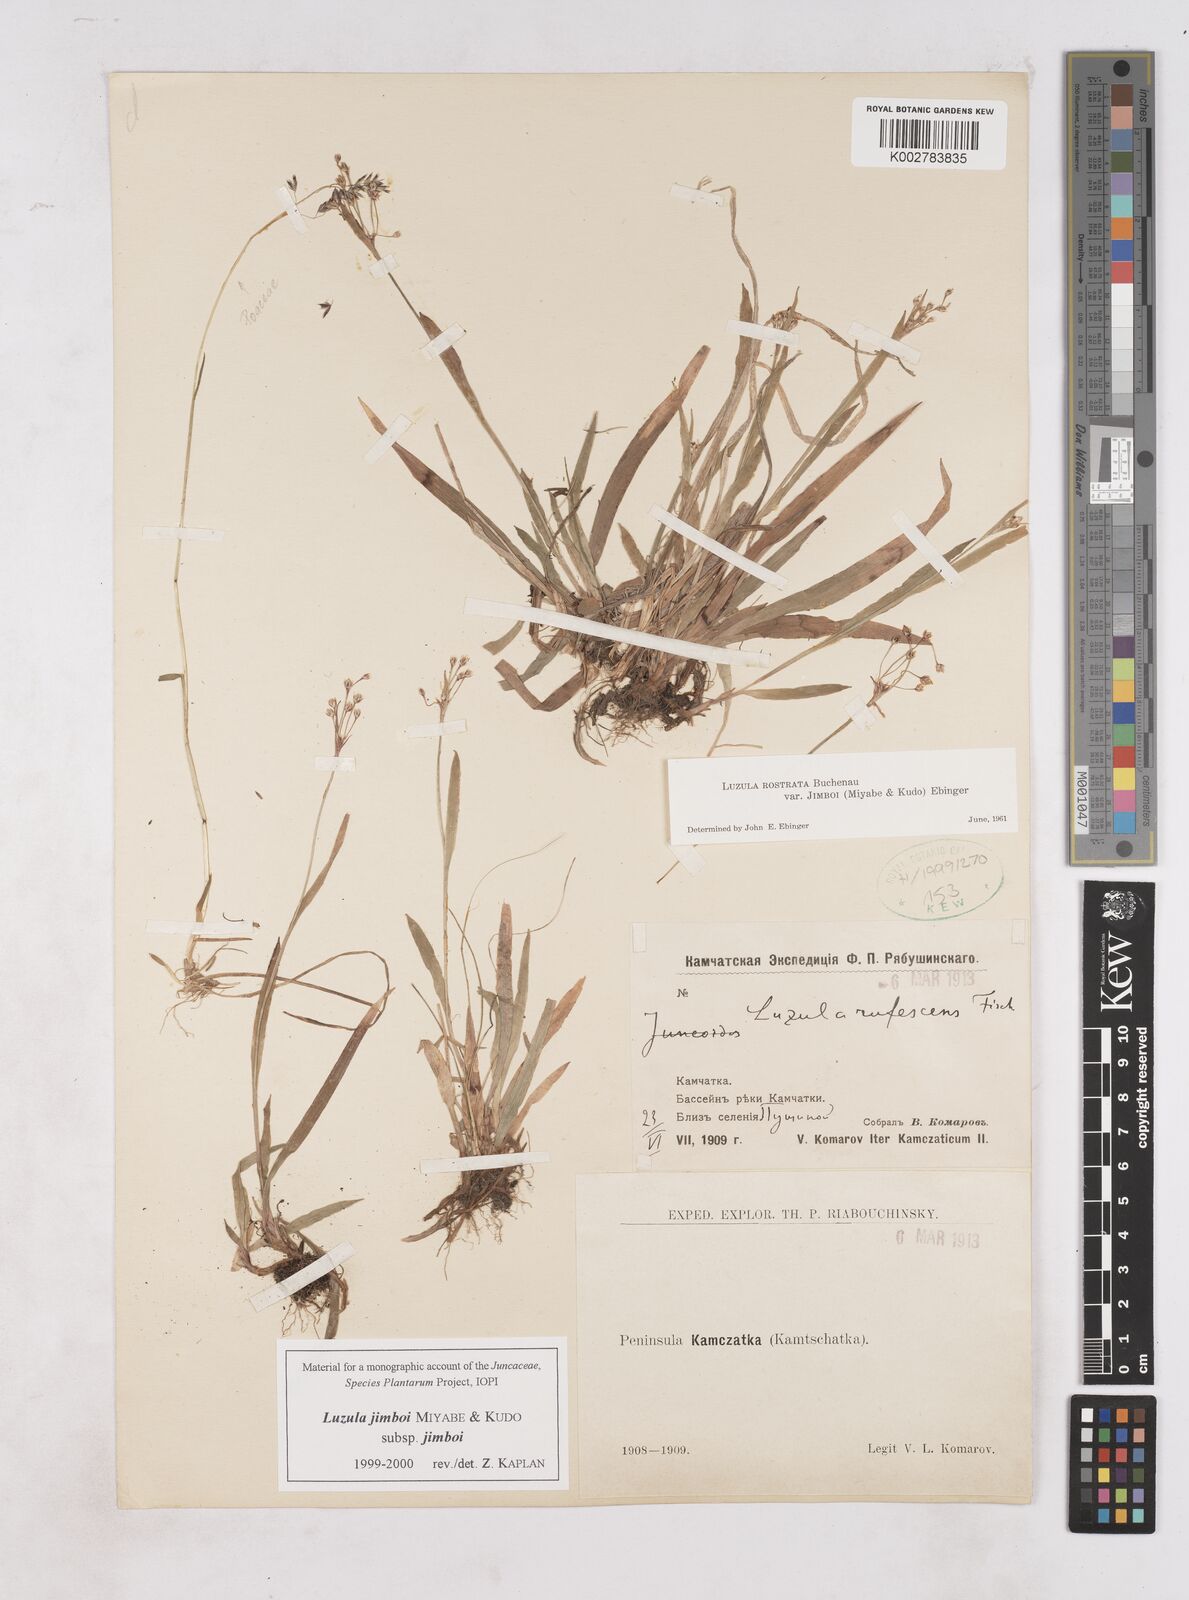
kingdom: Plantae
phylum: Tracheophyta
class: Liliopsida
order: Poales
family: Juncaceae
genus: Luzula
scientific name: Luzula jimboi
